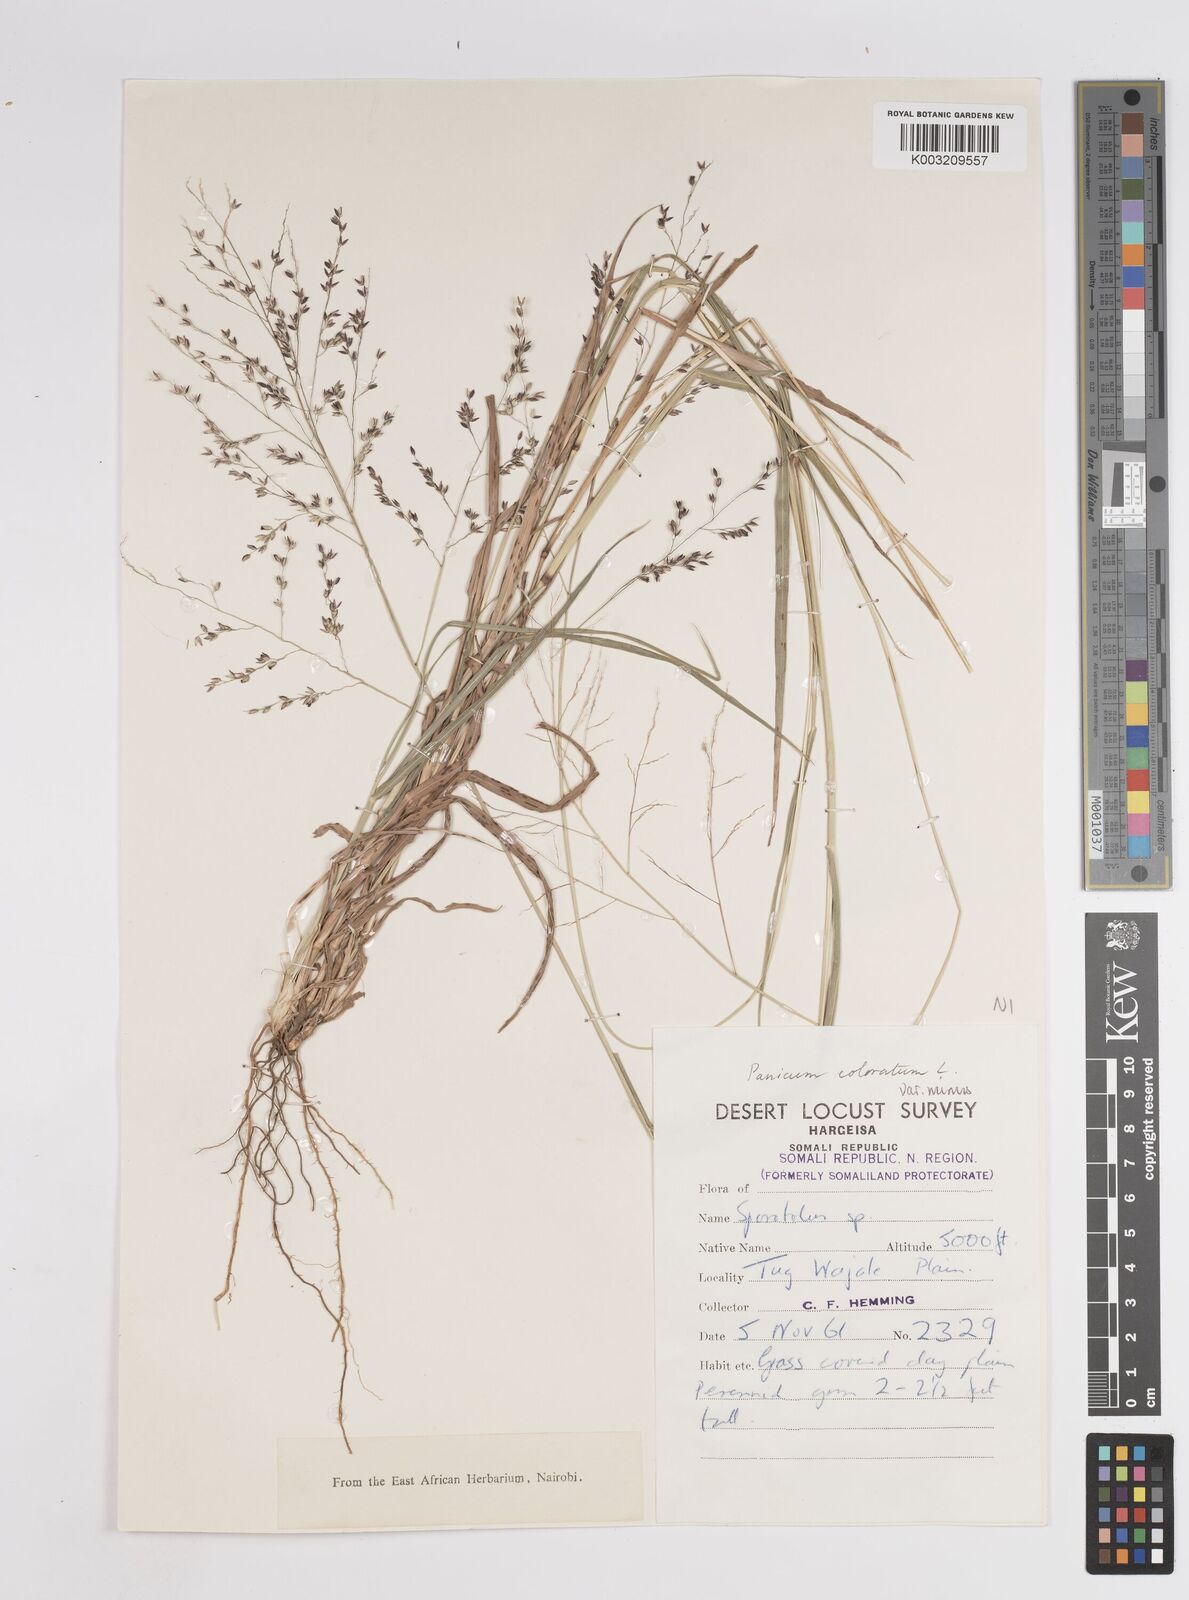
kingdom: Plantae
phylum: Tracheophyta
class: Liliopsida
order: Poales
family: Poaceae
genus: Panicum
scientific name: Panicum coloratum
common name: Kleingrass
